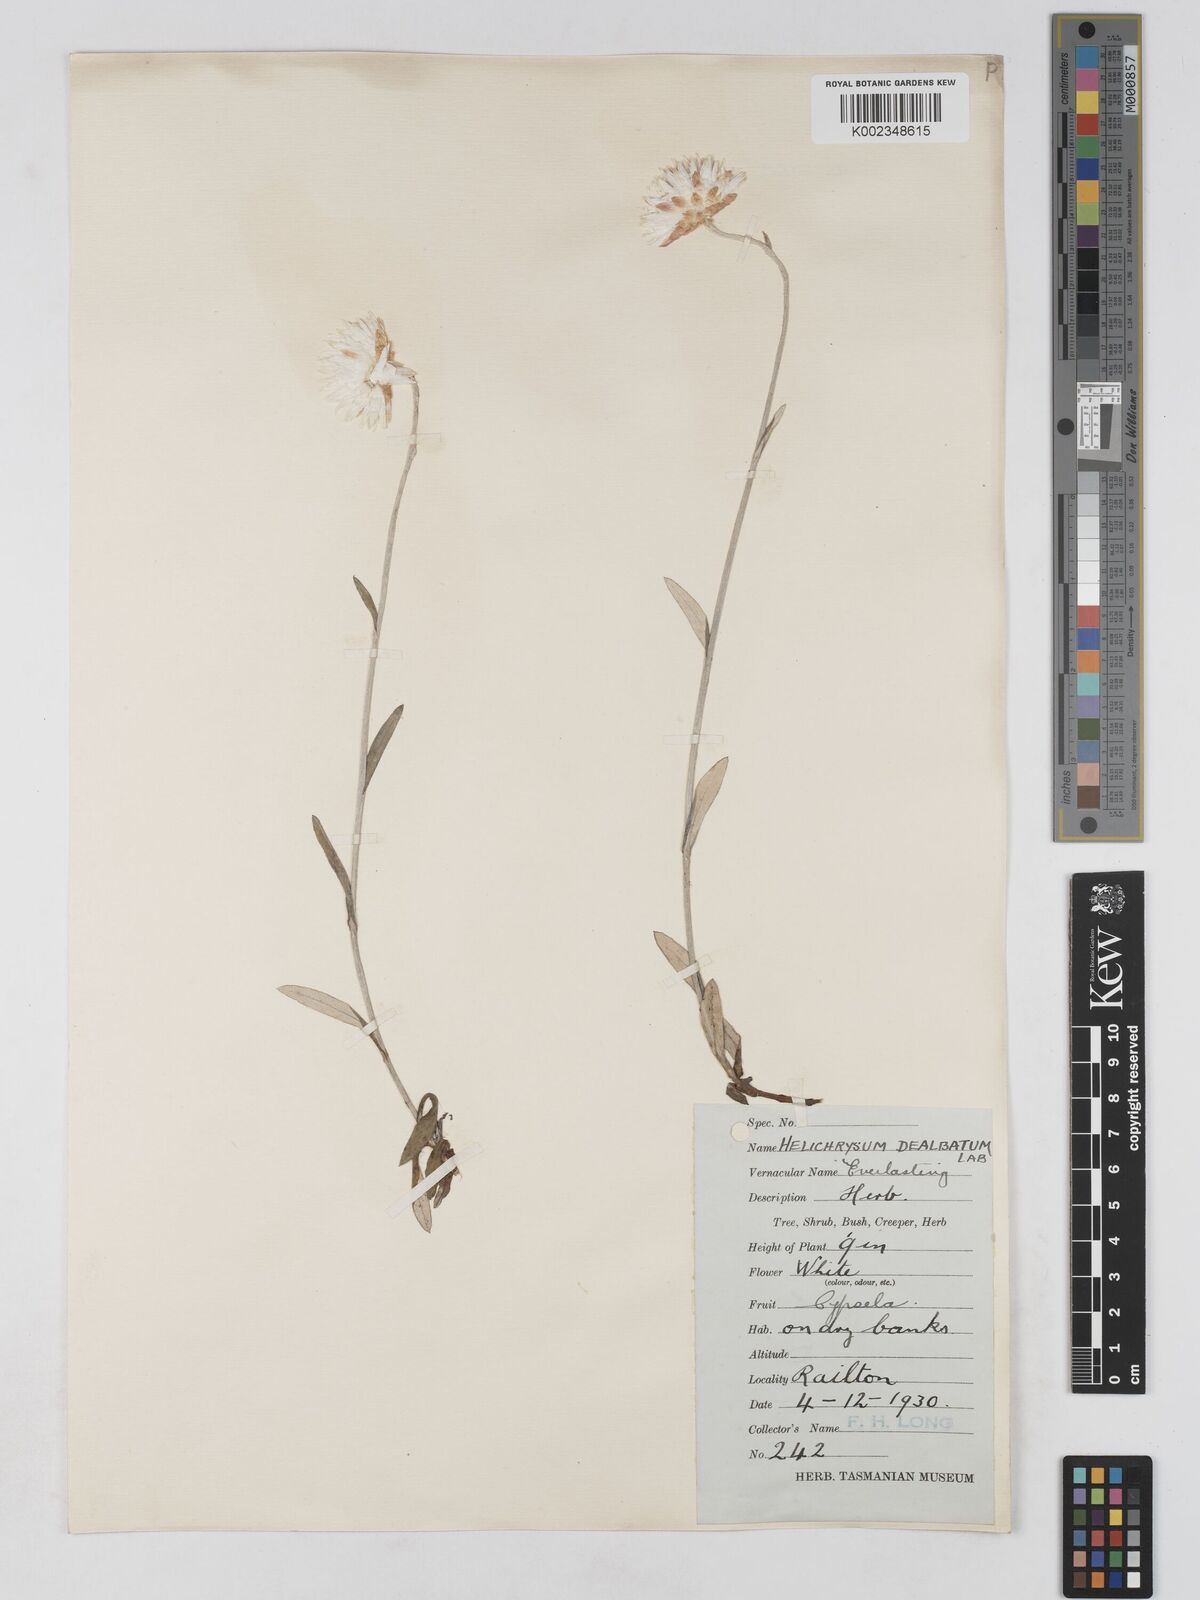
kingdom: Plantae
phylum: Tracheophyta
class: Magnoliopsida
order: Asterales
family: Asteraceae
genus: Argentipallium
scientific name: Argentipallium dealbatum
